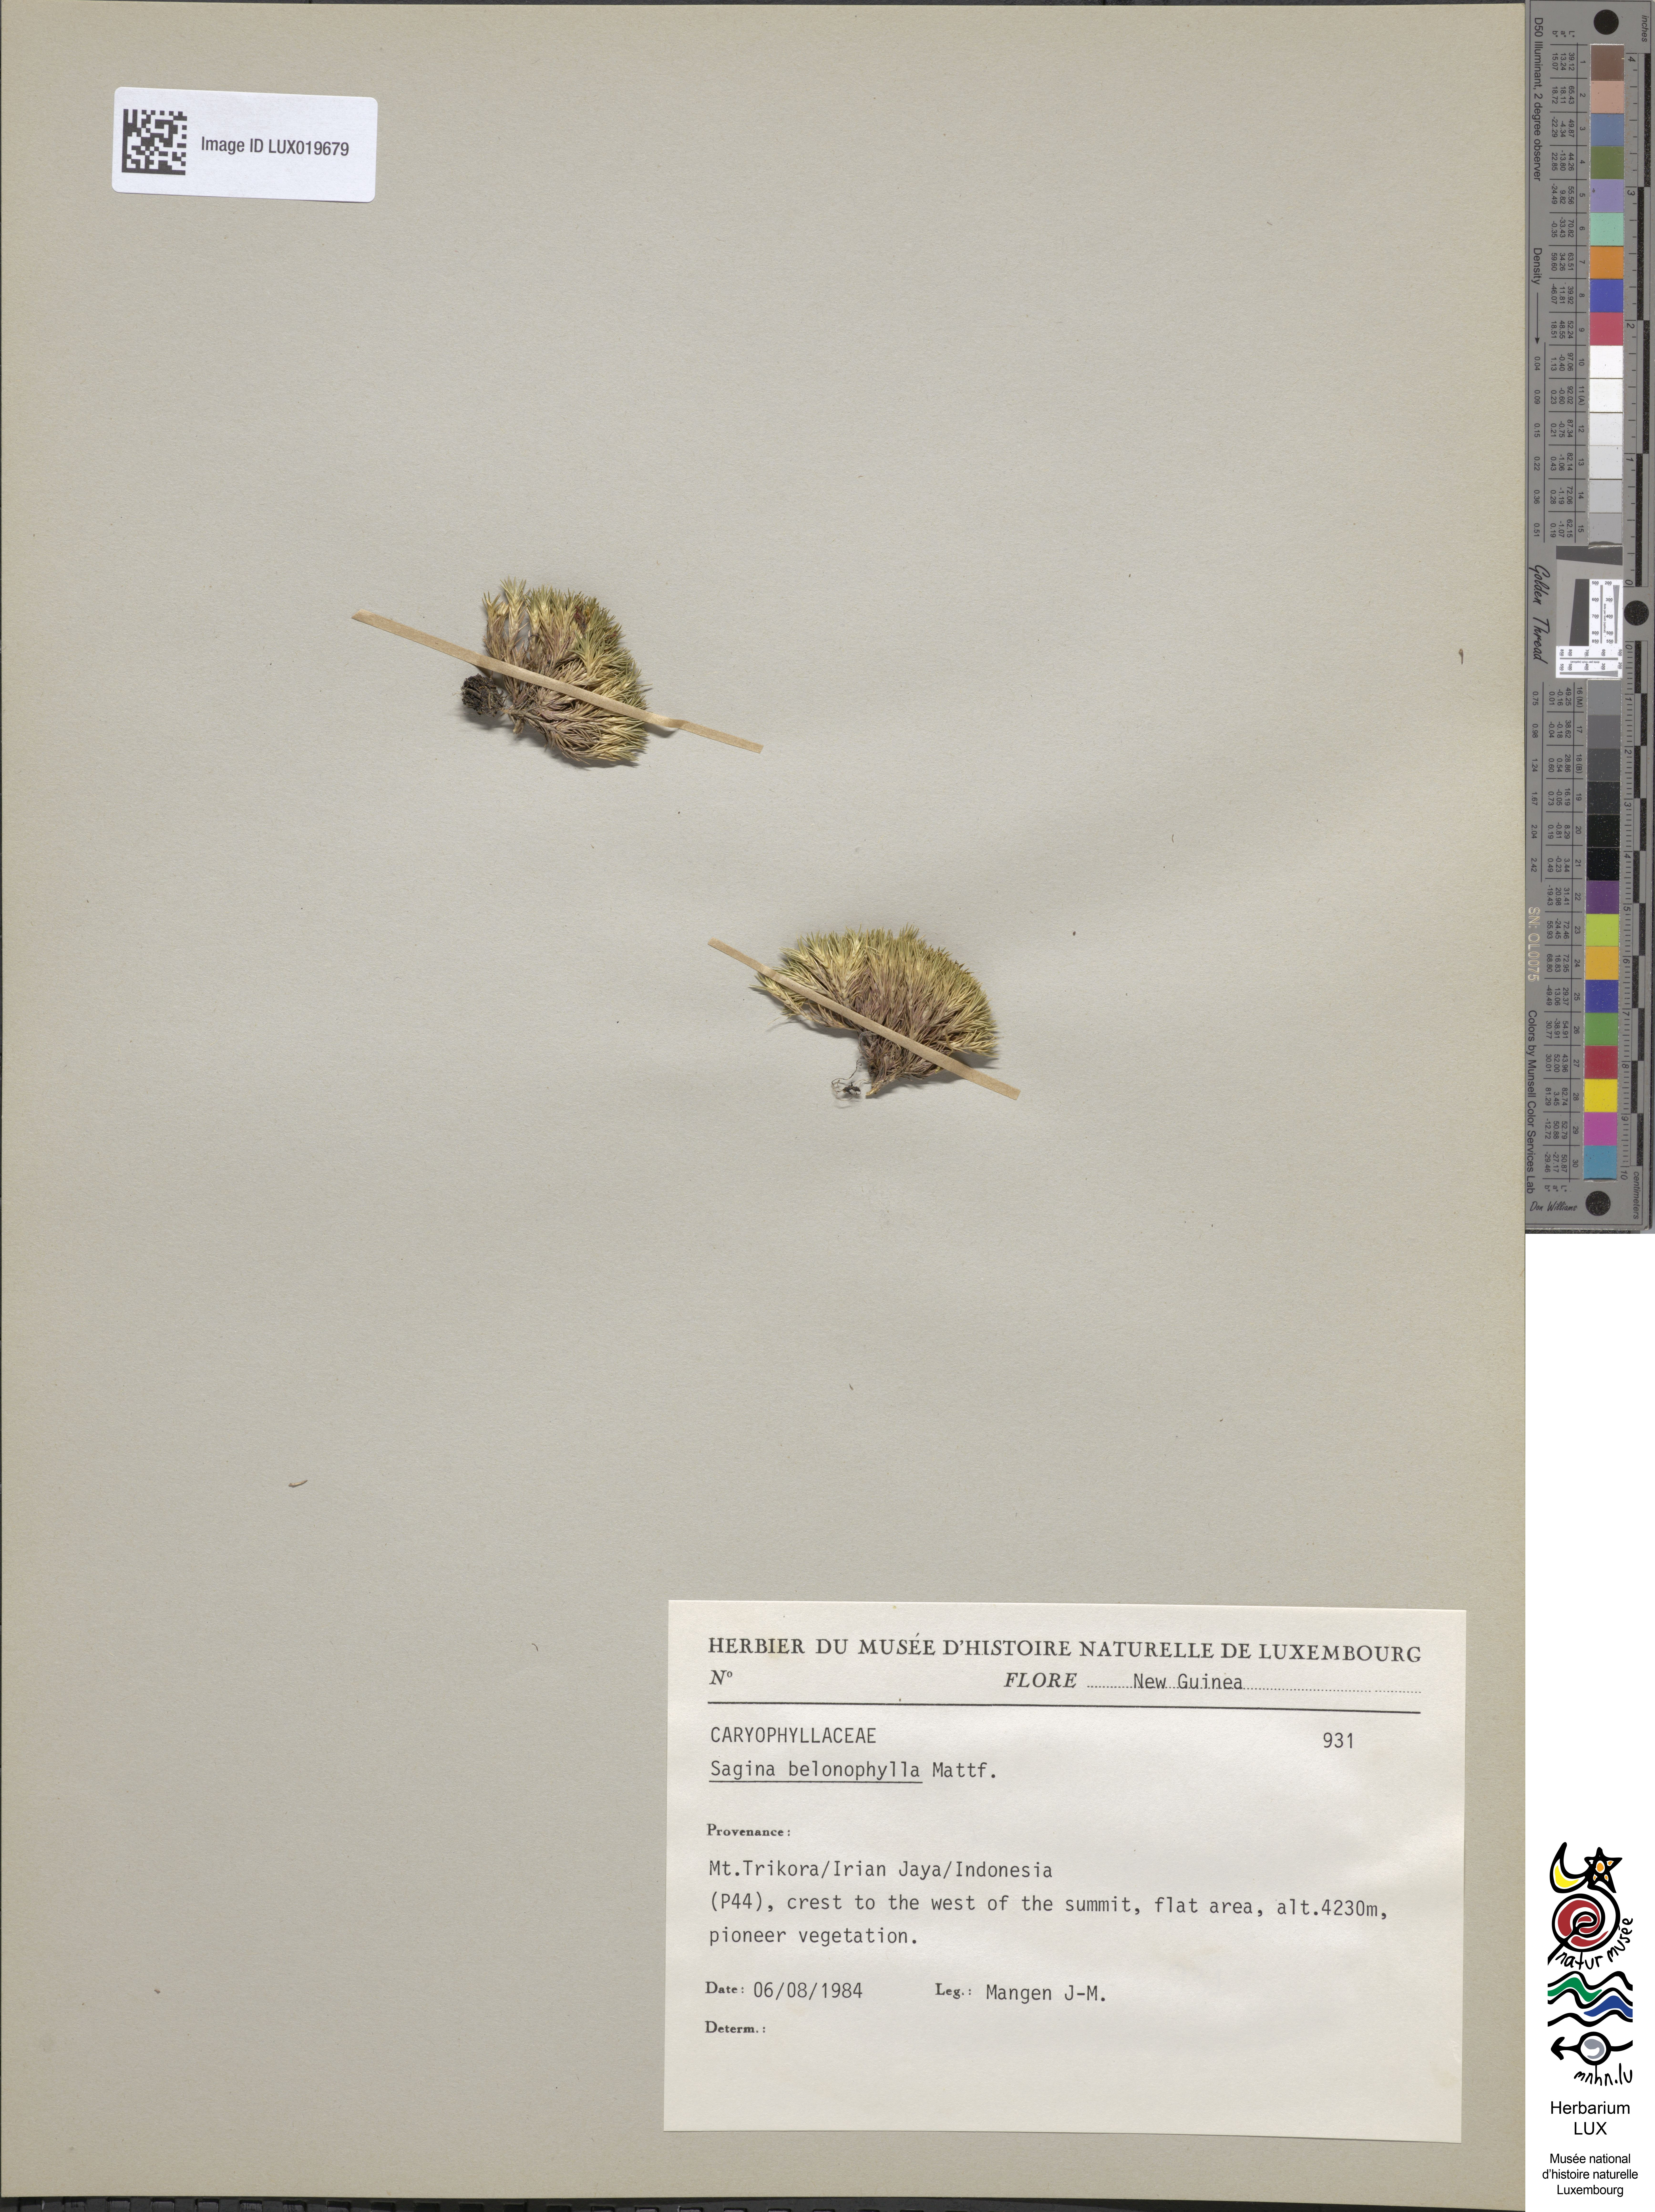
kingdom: Plantae
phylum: Tracheophyta
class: Magnoliopsida
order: Caryophyllales
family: Caryophyllaceae
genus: Sagina
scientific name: Sagina belonophylla
